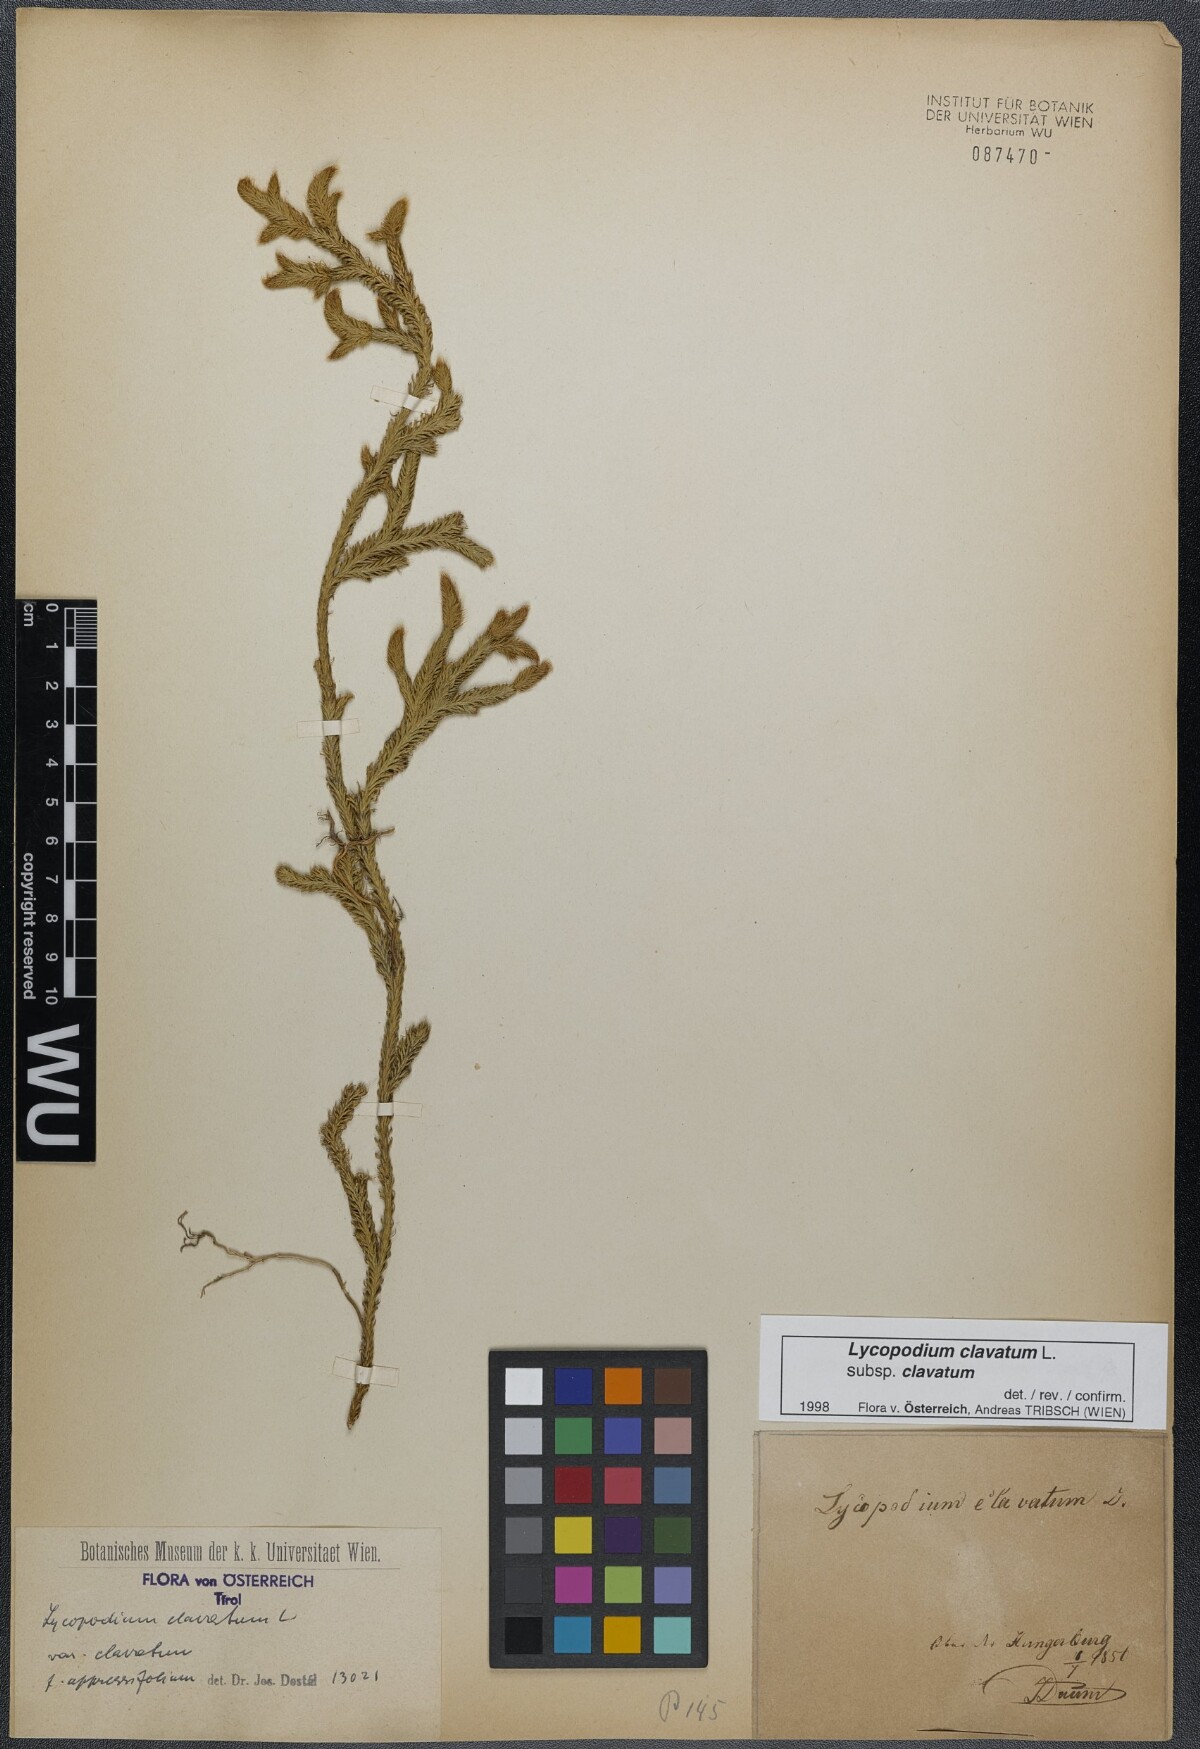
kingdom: Plantae
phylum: Tracheophyta
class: Lycopodiopsida
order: Lycopodiales
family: Lycopodiaceae
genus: Lycopodium
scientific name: Lycopodium clavatum
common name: Stag's-horn clubmoss
